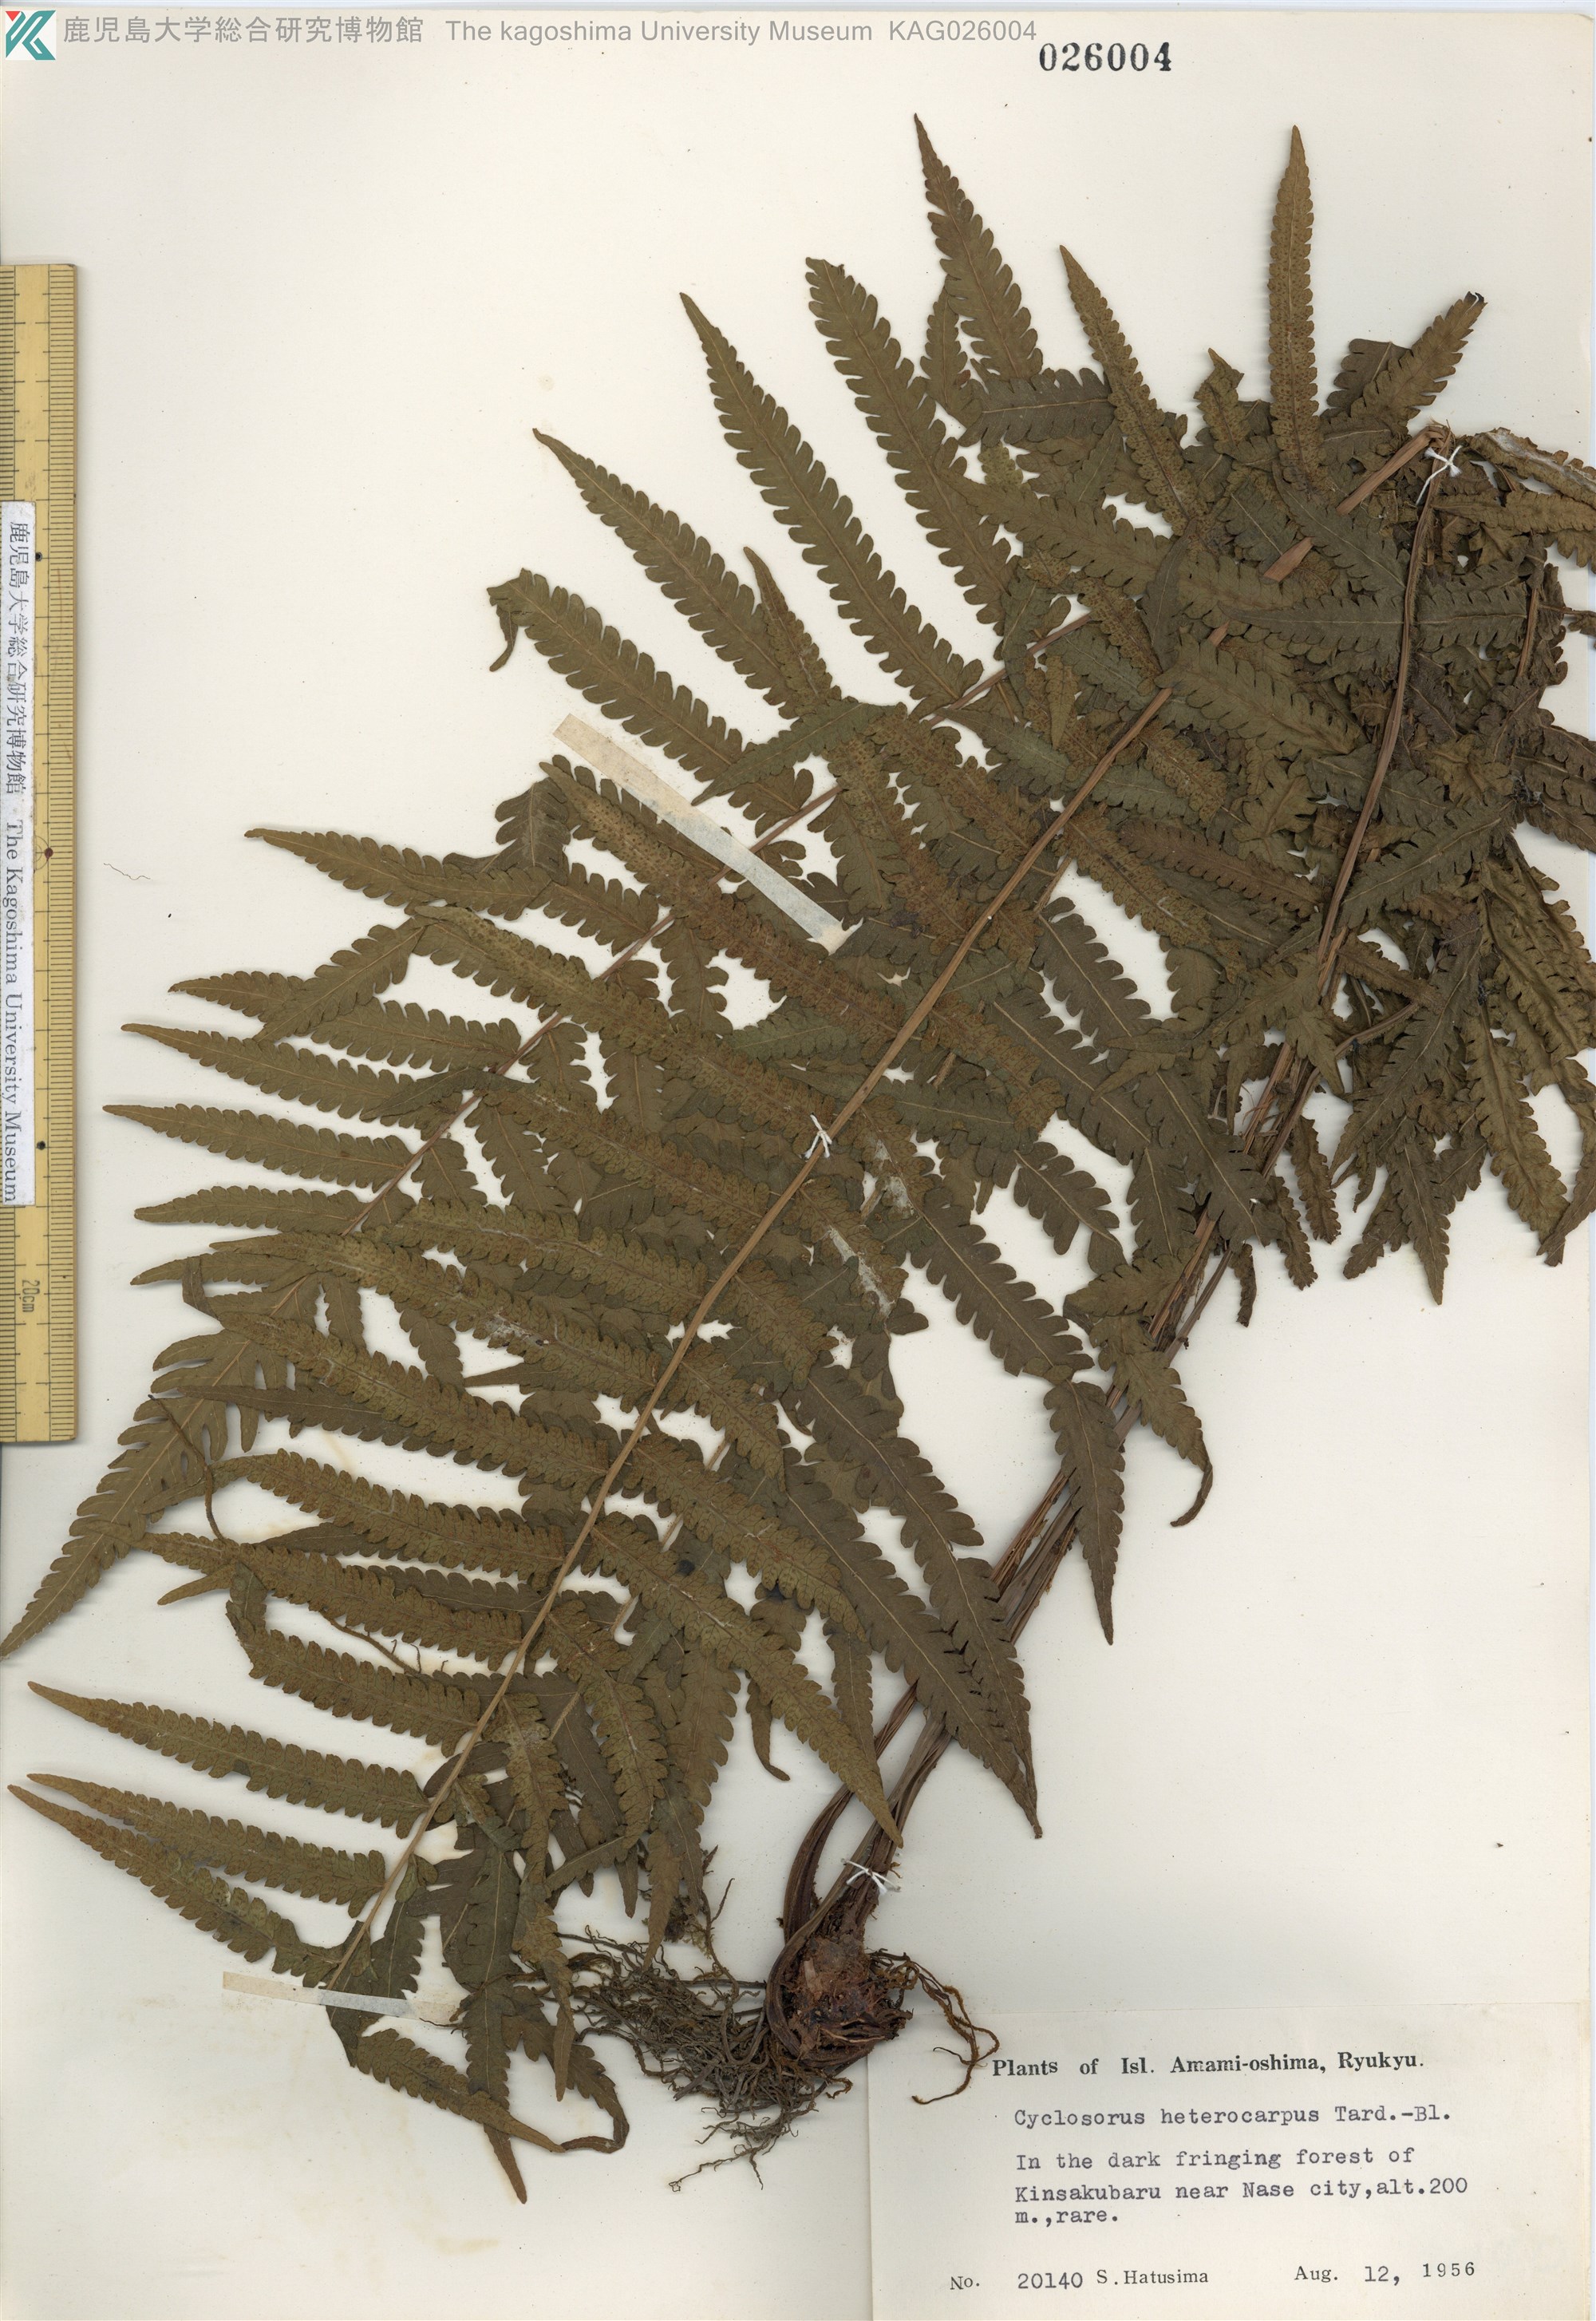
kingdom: Plantae
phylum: Tracheophyta
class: Polypodiopsida
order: Polypodiales
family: Thelypteridaceae
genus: Sphaerostephanos
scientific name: Sphaerostephanos taiwanensis
